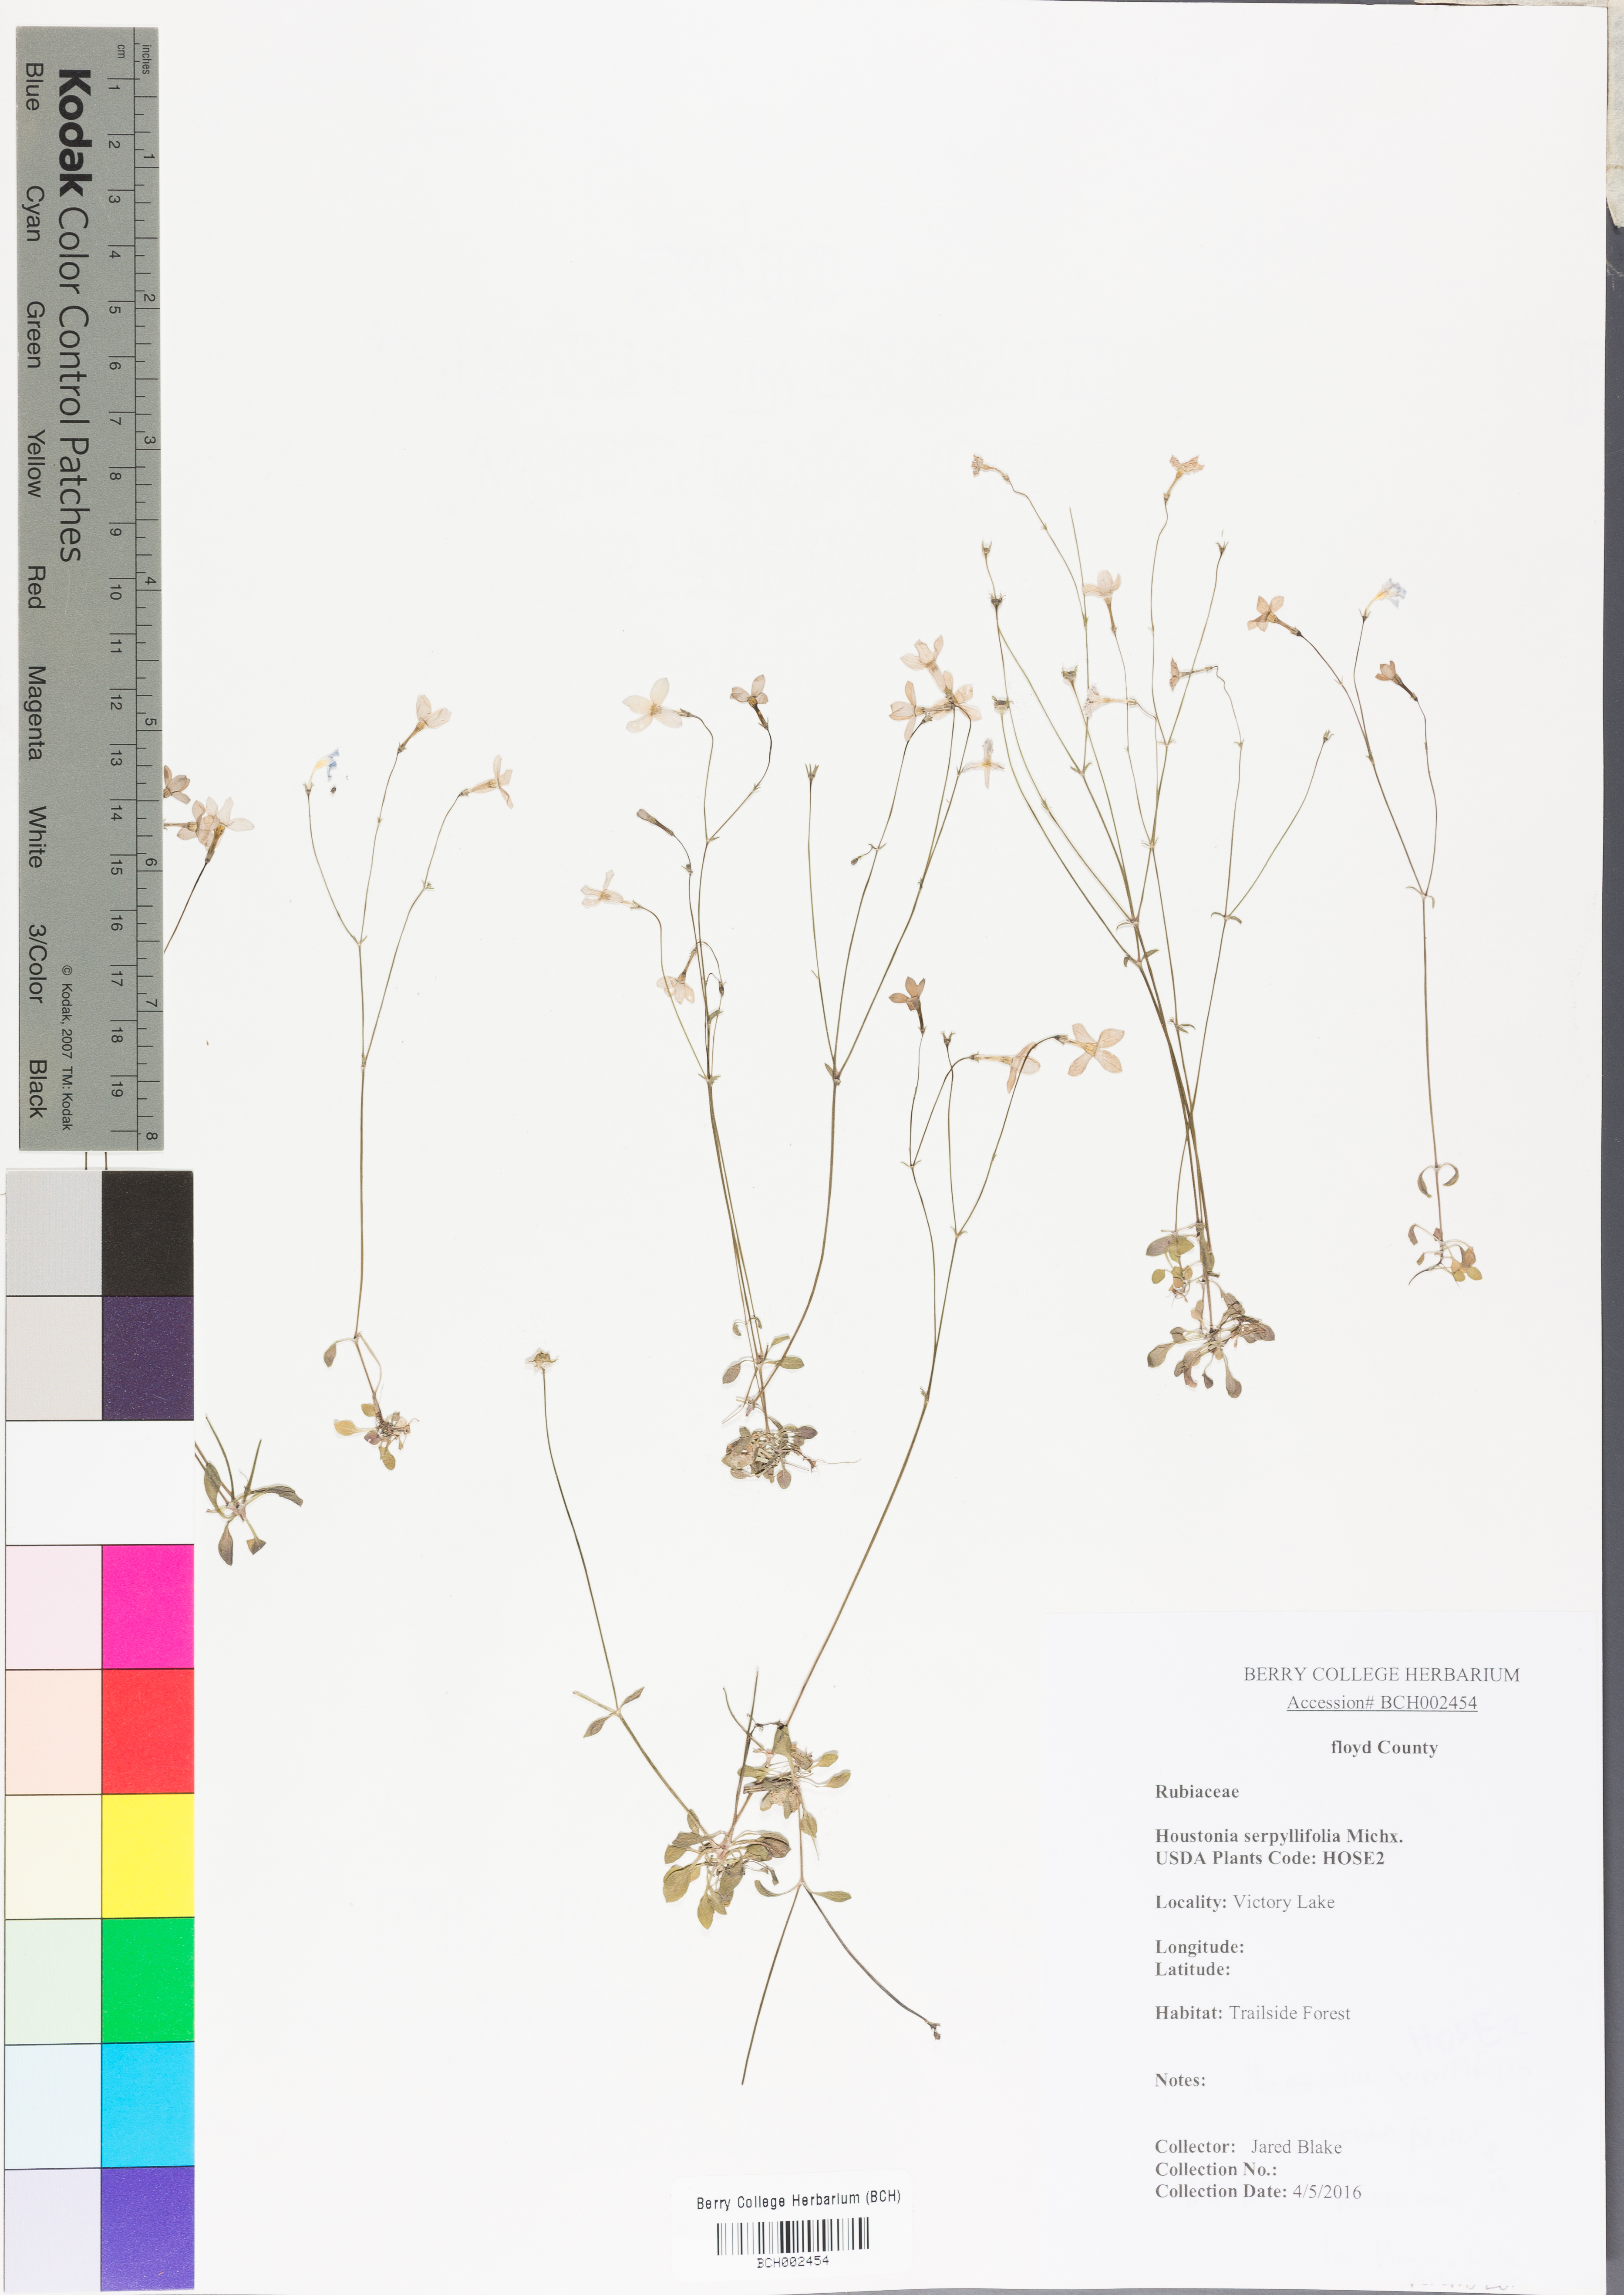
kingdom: Plantae
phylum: Tracheophyta
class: Magnoliopsida
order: Gentianales
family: Rubiaceae
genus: Houstonia
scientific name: Houstonia serpyllifolia
